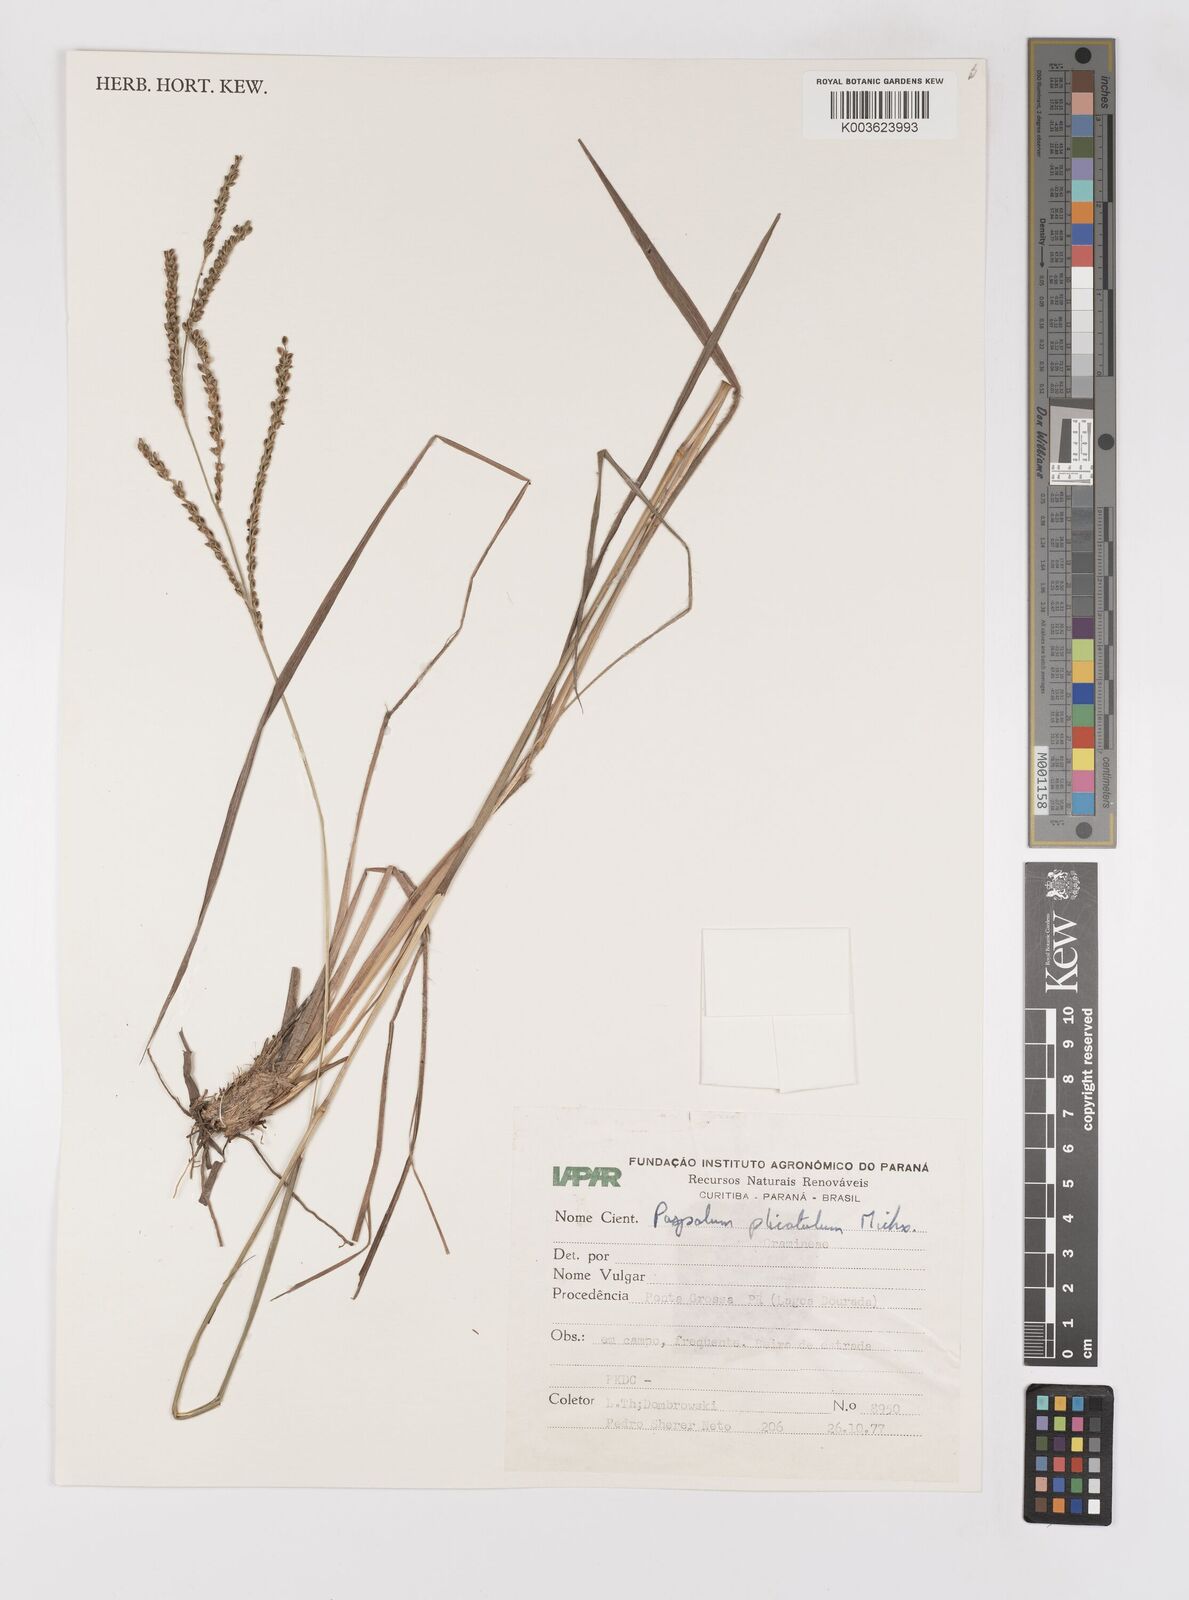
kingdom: Plantae
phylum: Tracheophyta
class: Liliopsida
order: Poales
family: Poaceae
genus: Paspalum
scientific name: Paspalum glaucescens
